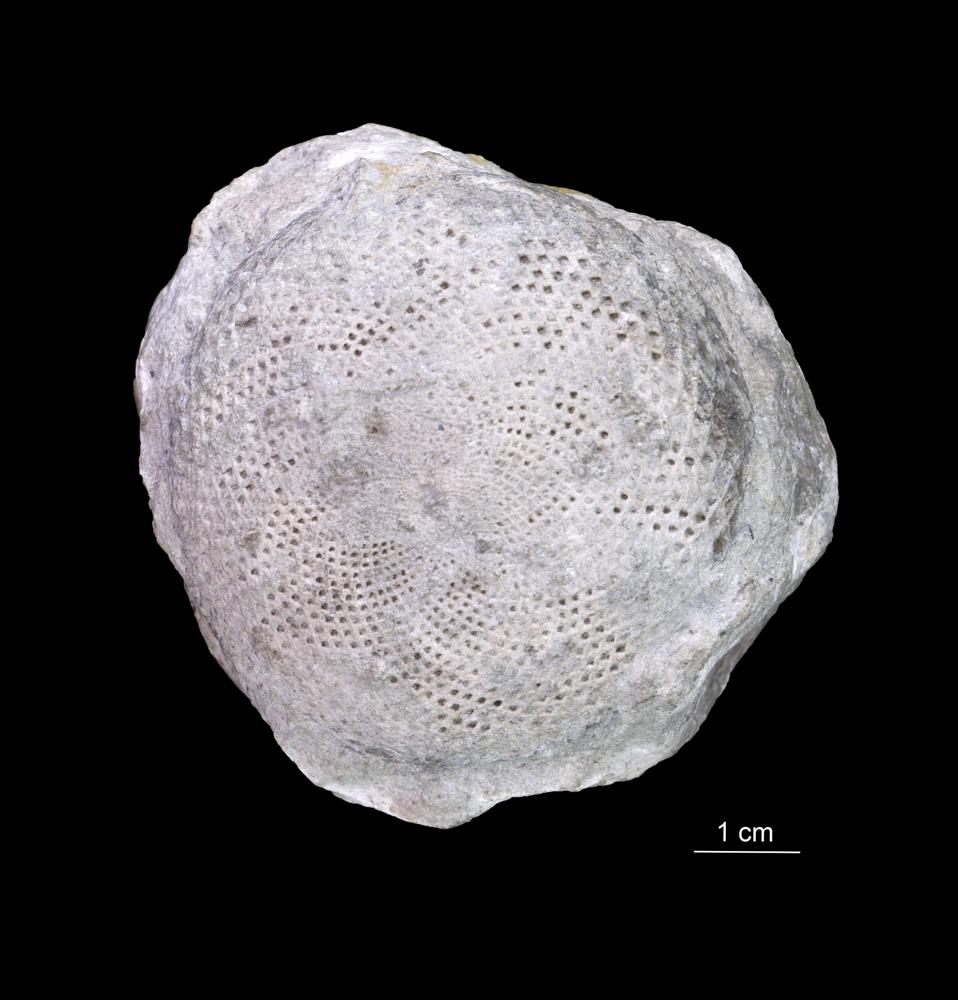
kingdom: Plantae
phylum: Chlorophyta
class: Chlorophyceae
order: Receptaculitales
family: Receptaculitaceae
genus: Receptaculites
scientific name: Receptaculites
